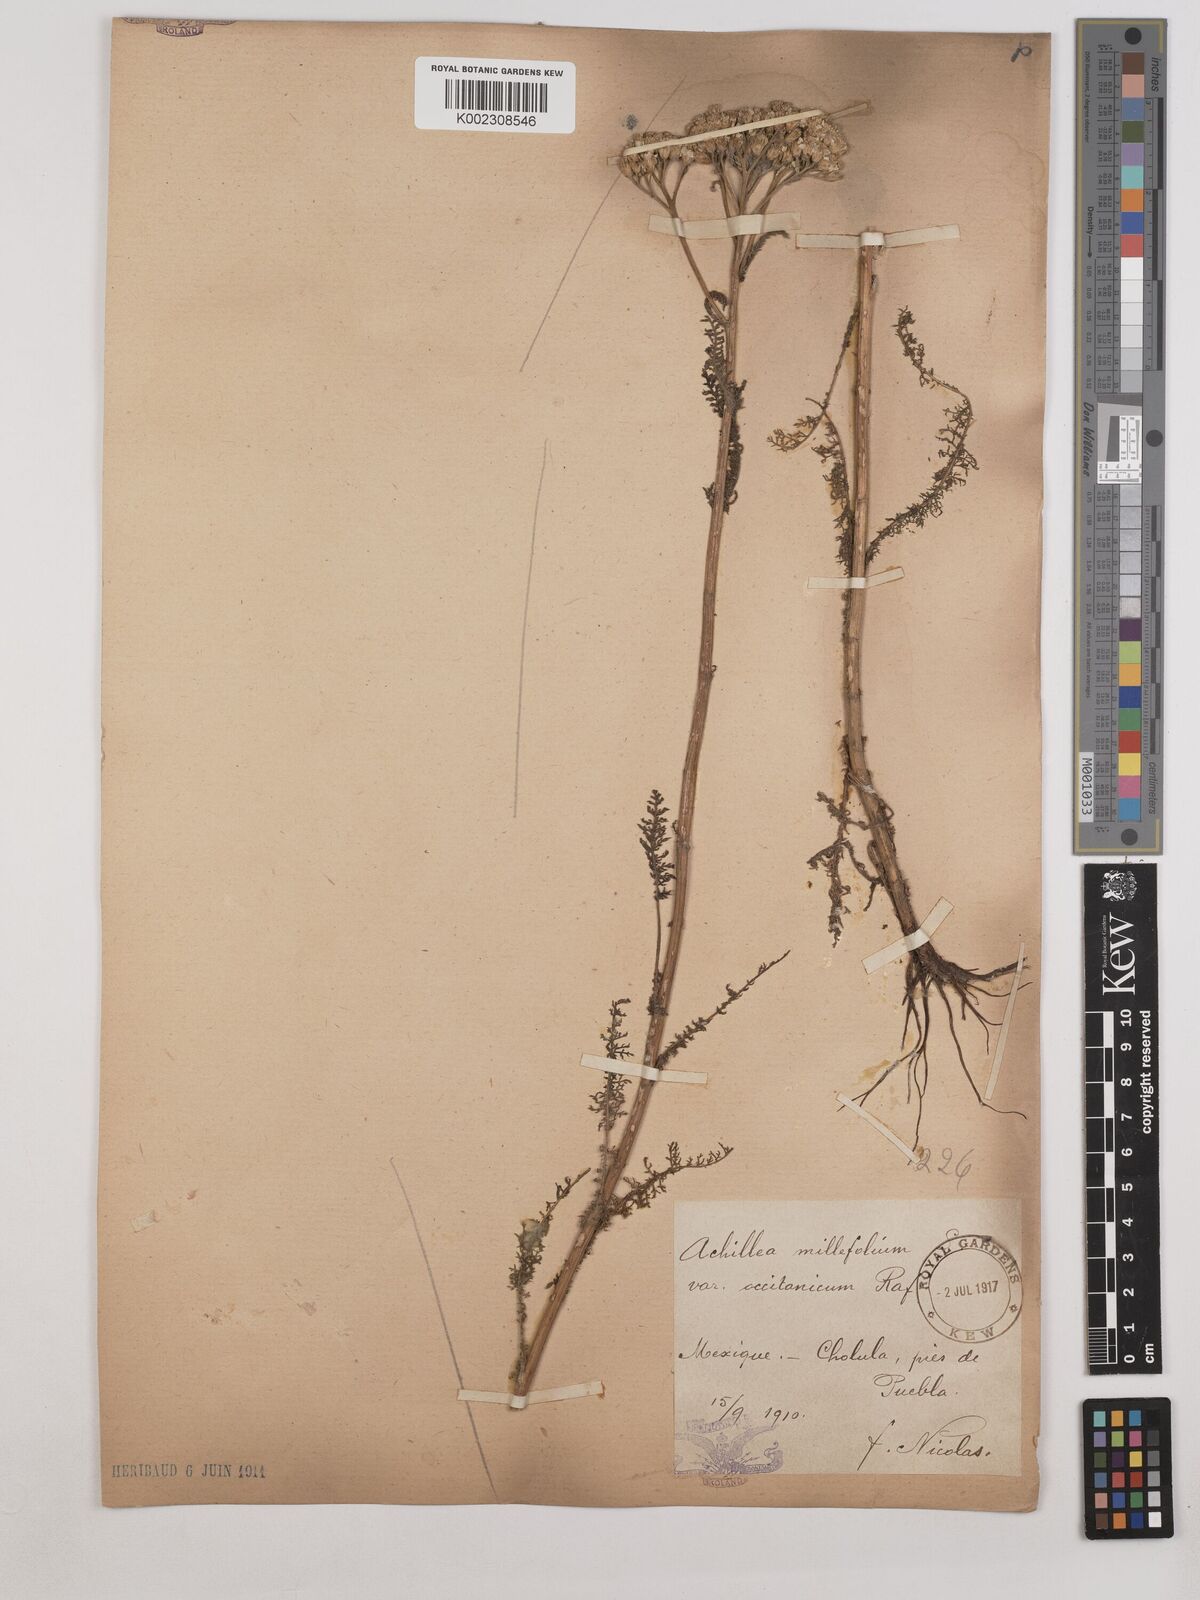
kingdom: Plantae
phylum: Tracheophyta
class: Magnoliopsida
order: Asterales
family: Asteraceae
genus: Achillea
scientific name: Achillea millefolium
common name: Yarrow
